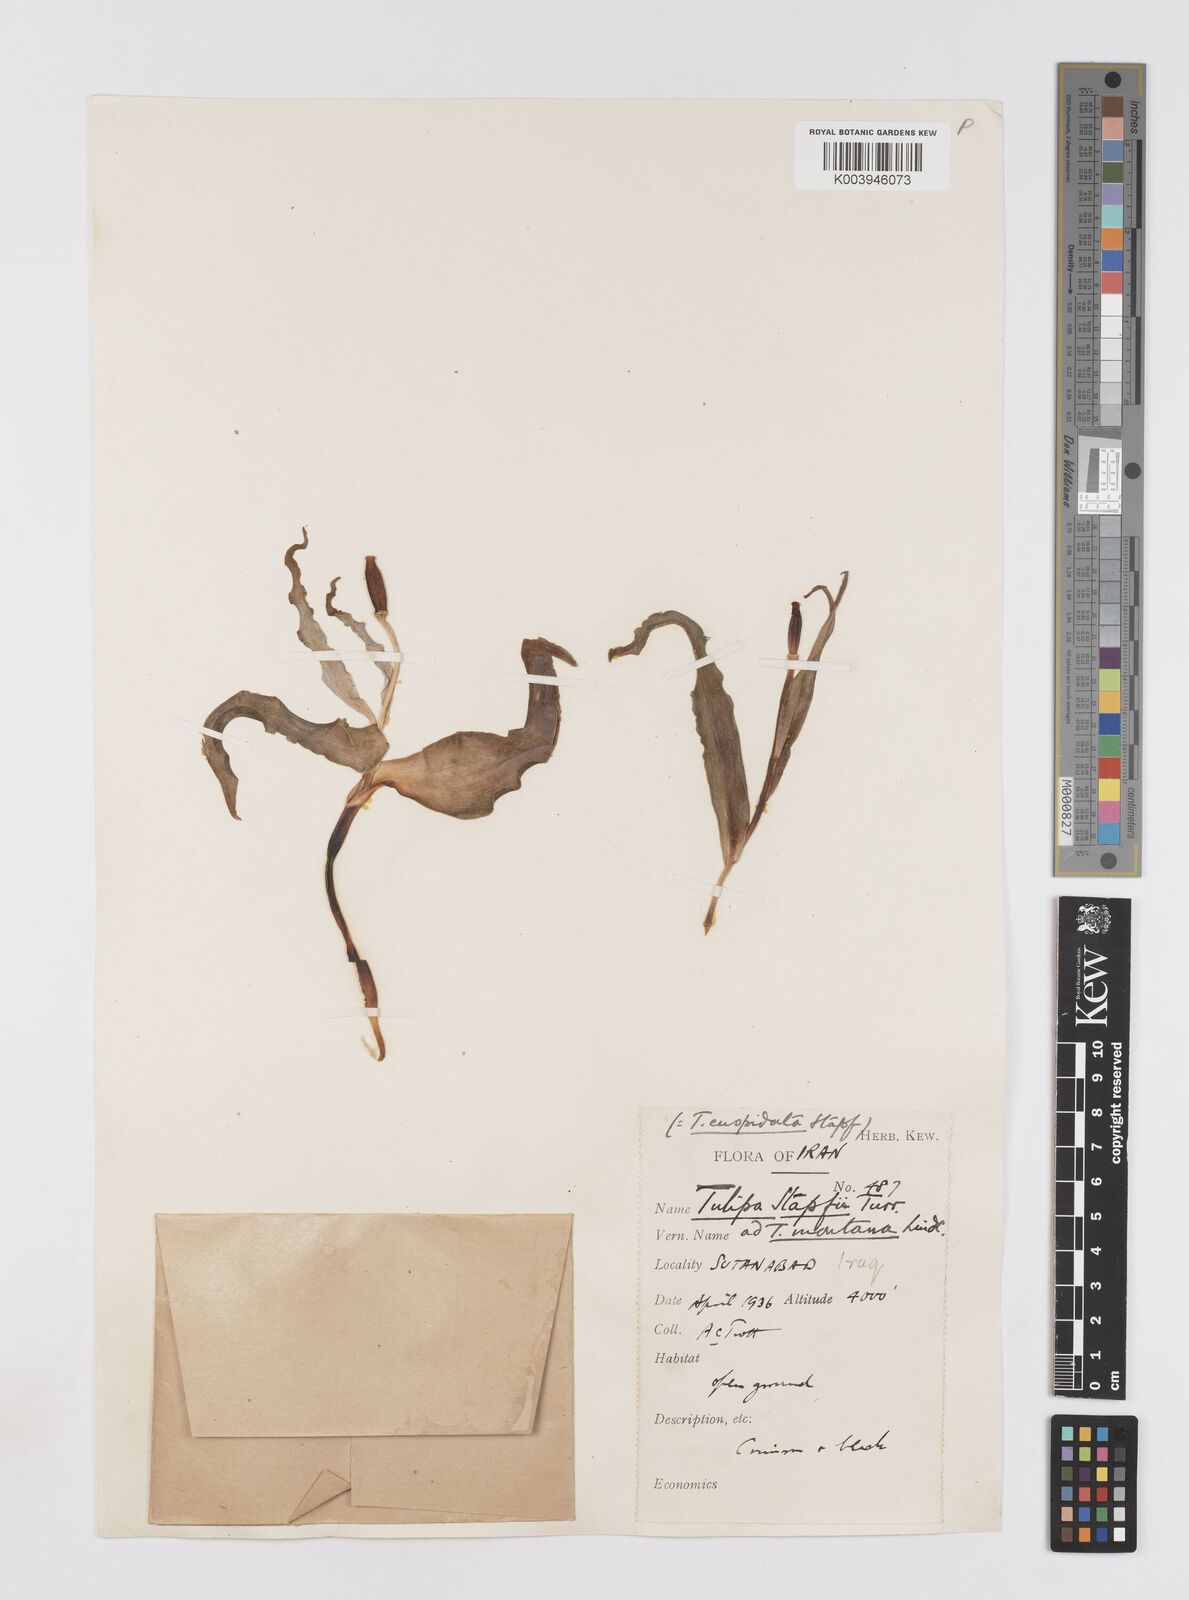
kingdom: Plantae
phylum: Tracheophyta
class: Liliopsida
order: Liliales
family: Liliaceae
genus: Tulipa
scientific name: Tulipa systola
